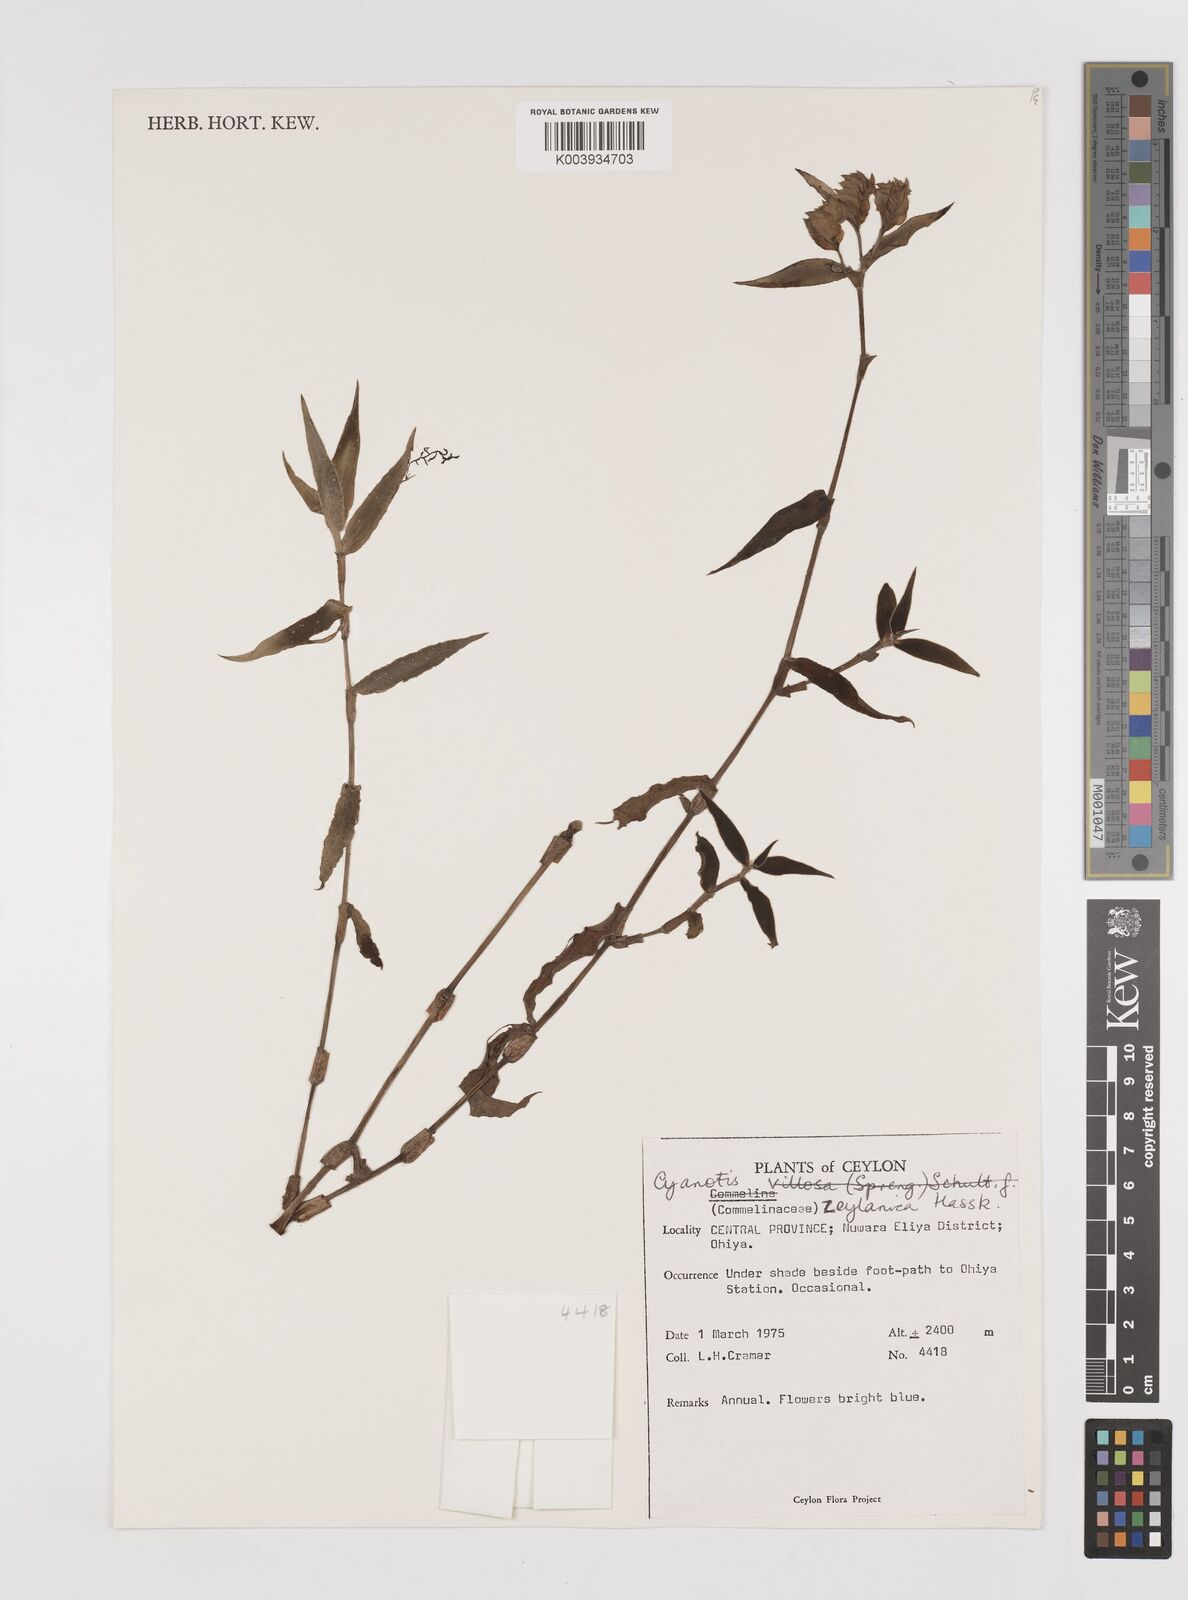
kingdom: Plantae
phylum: Tracheophyta
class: Liliopsida
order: Commelinales
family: Commelinaceae
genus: Cyanotis
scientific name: Cyanotis ceylanica
